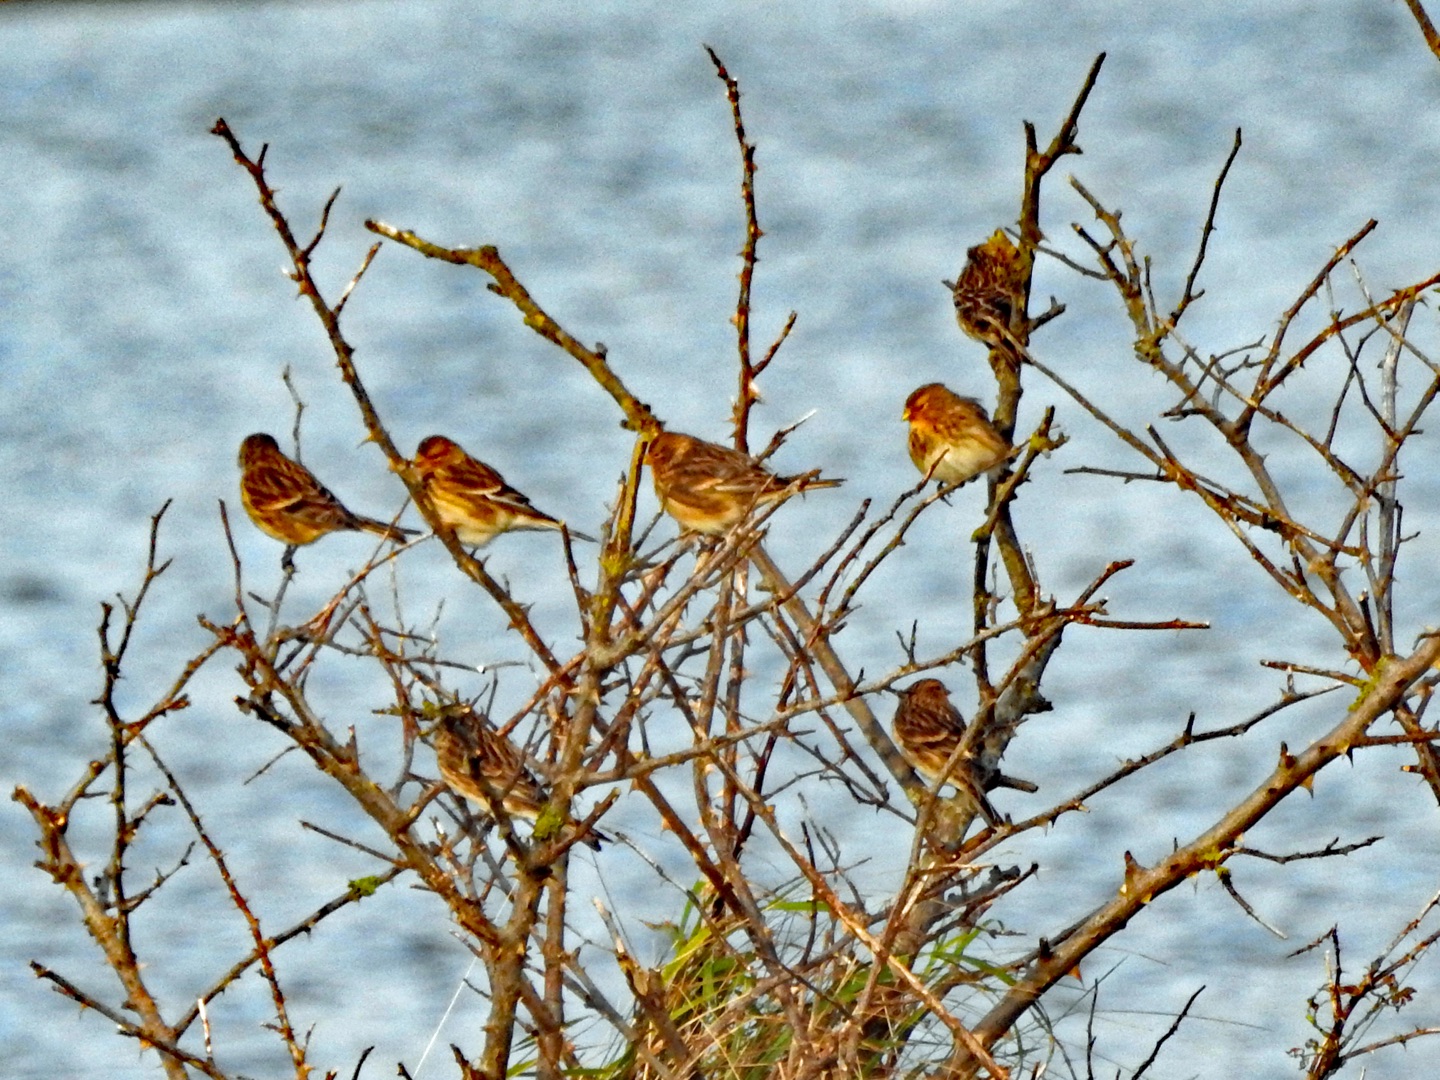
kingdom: Animalia
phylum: Chordata
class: Aves
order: Passeriformes
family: Fringillidae
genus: Linaria
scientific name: Linaria flavirostris
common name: Bjergirisk
